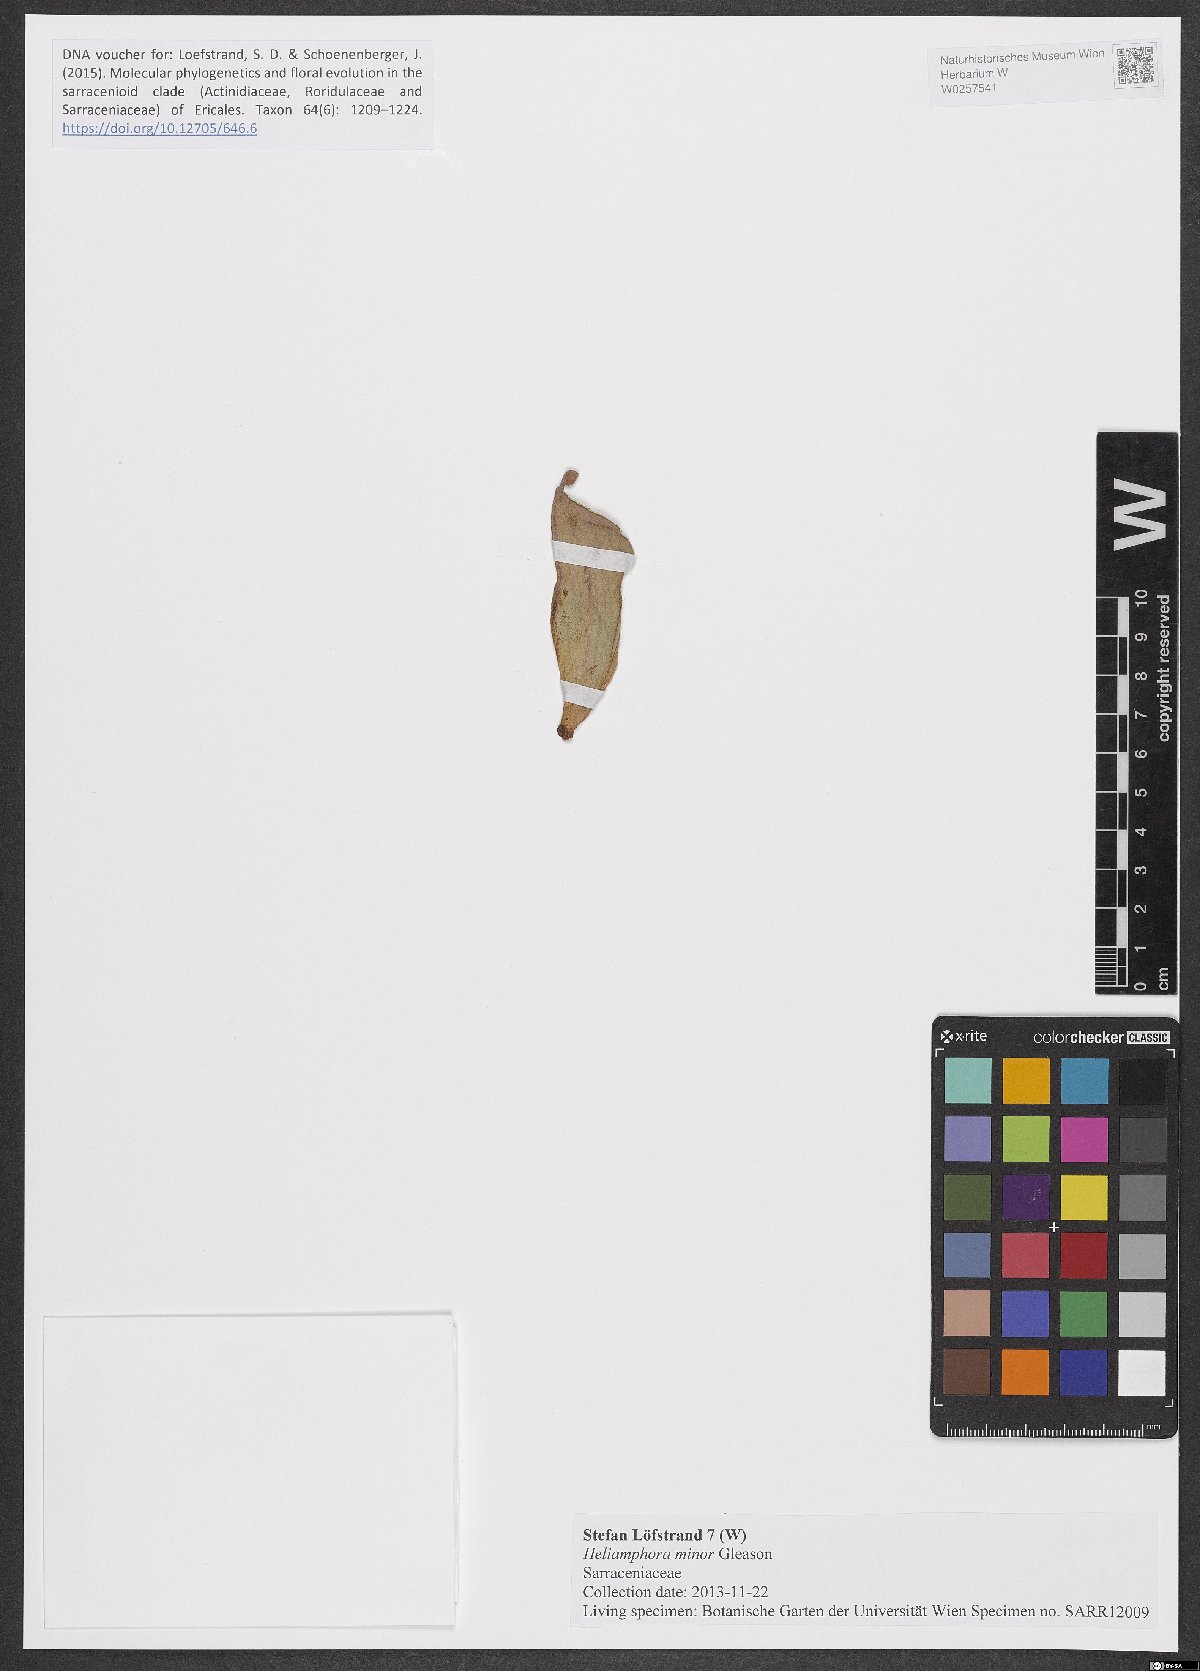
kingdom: Plantae
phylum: Tracheophyta
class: Magnoliopsida
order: Ericales
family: Sarraceniaceae
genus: Heliamphora
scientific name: Heliamphora minor
